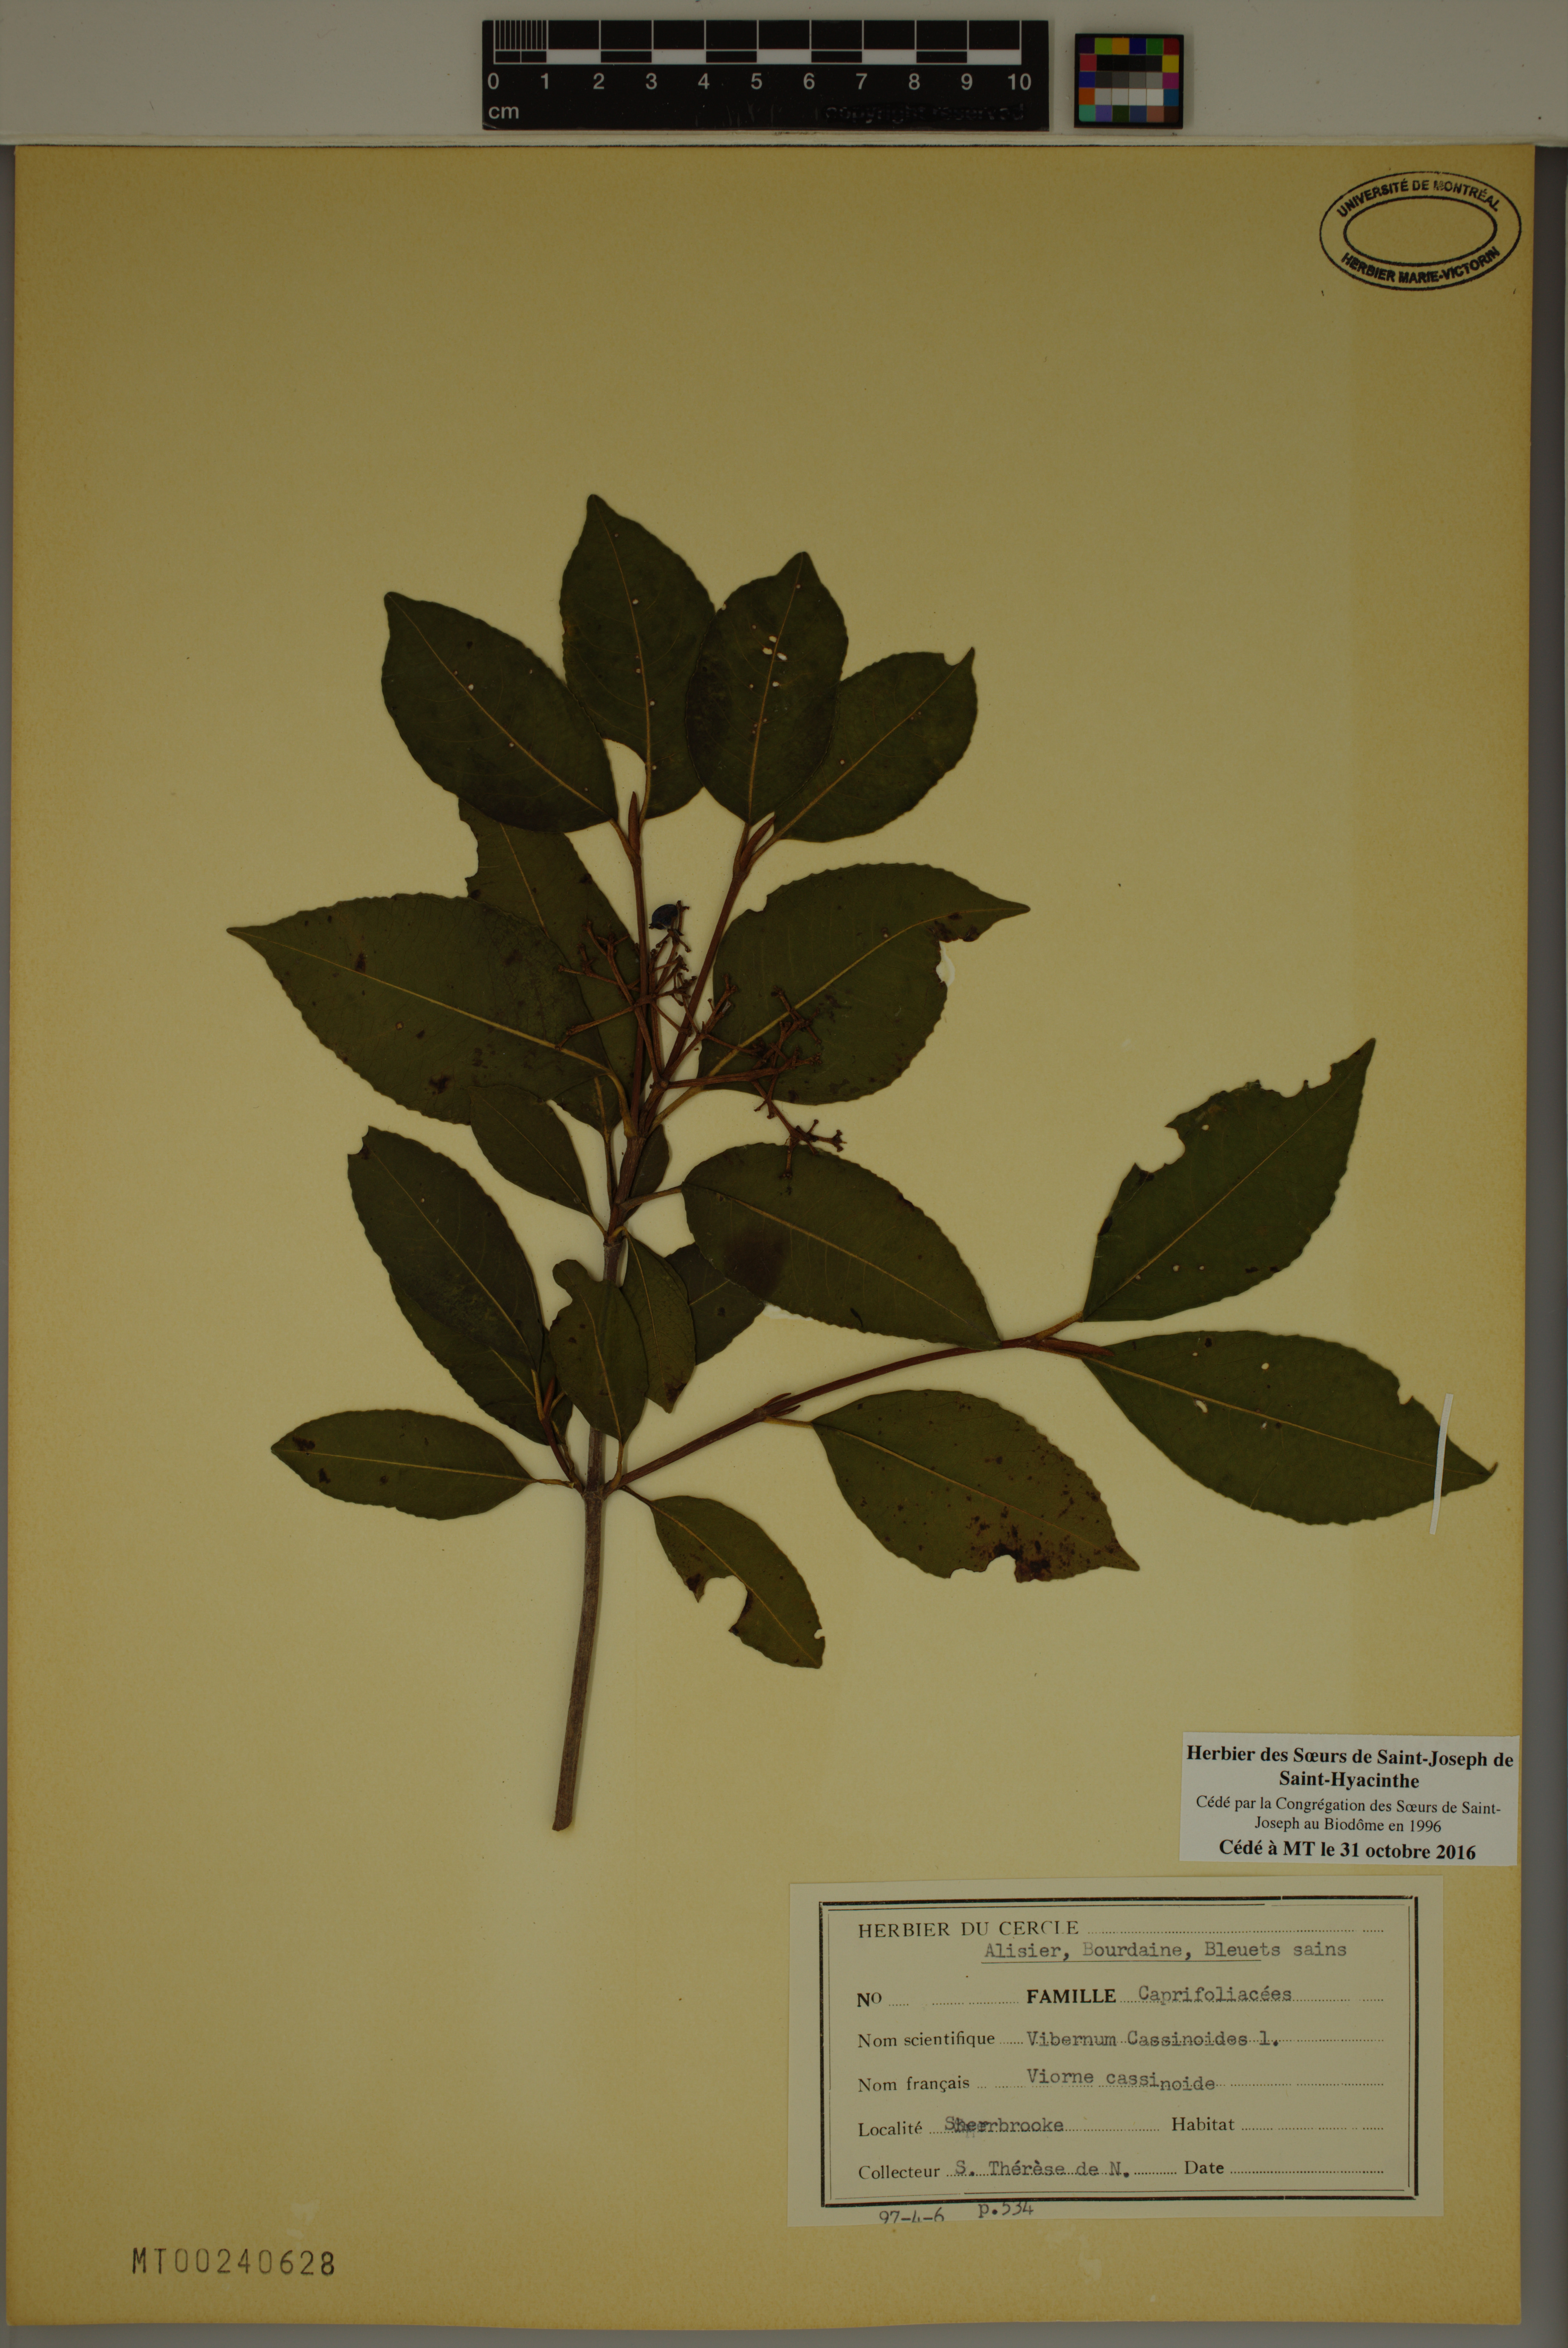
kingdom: Plantae
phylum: Tracheophyta
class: Magnoliopsida
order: Dipsacales
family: Viburnaceae
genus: Viburnum
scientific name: Viburnum cassinoides
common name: Swamp haw
